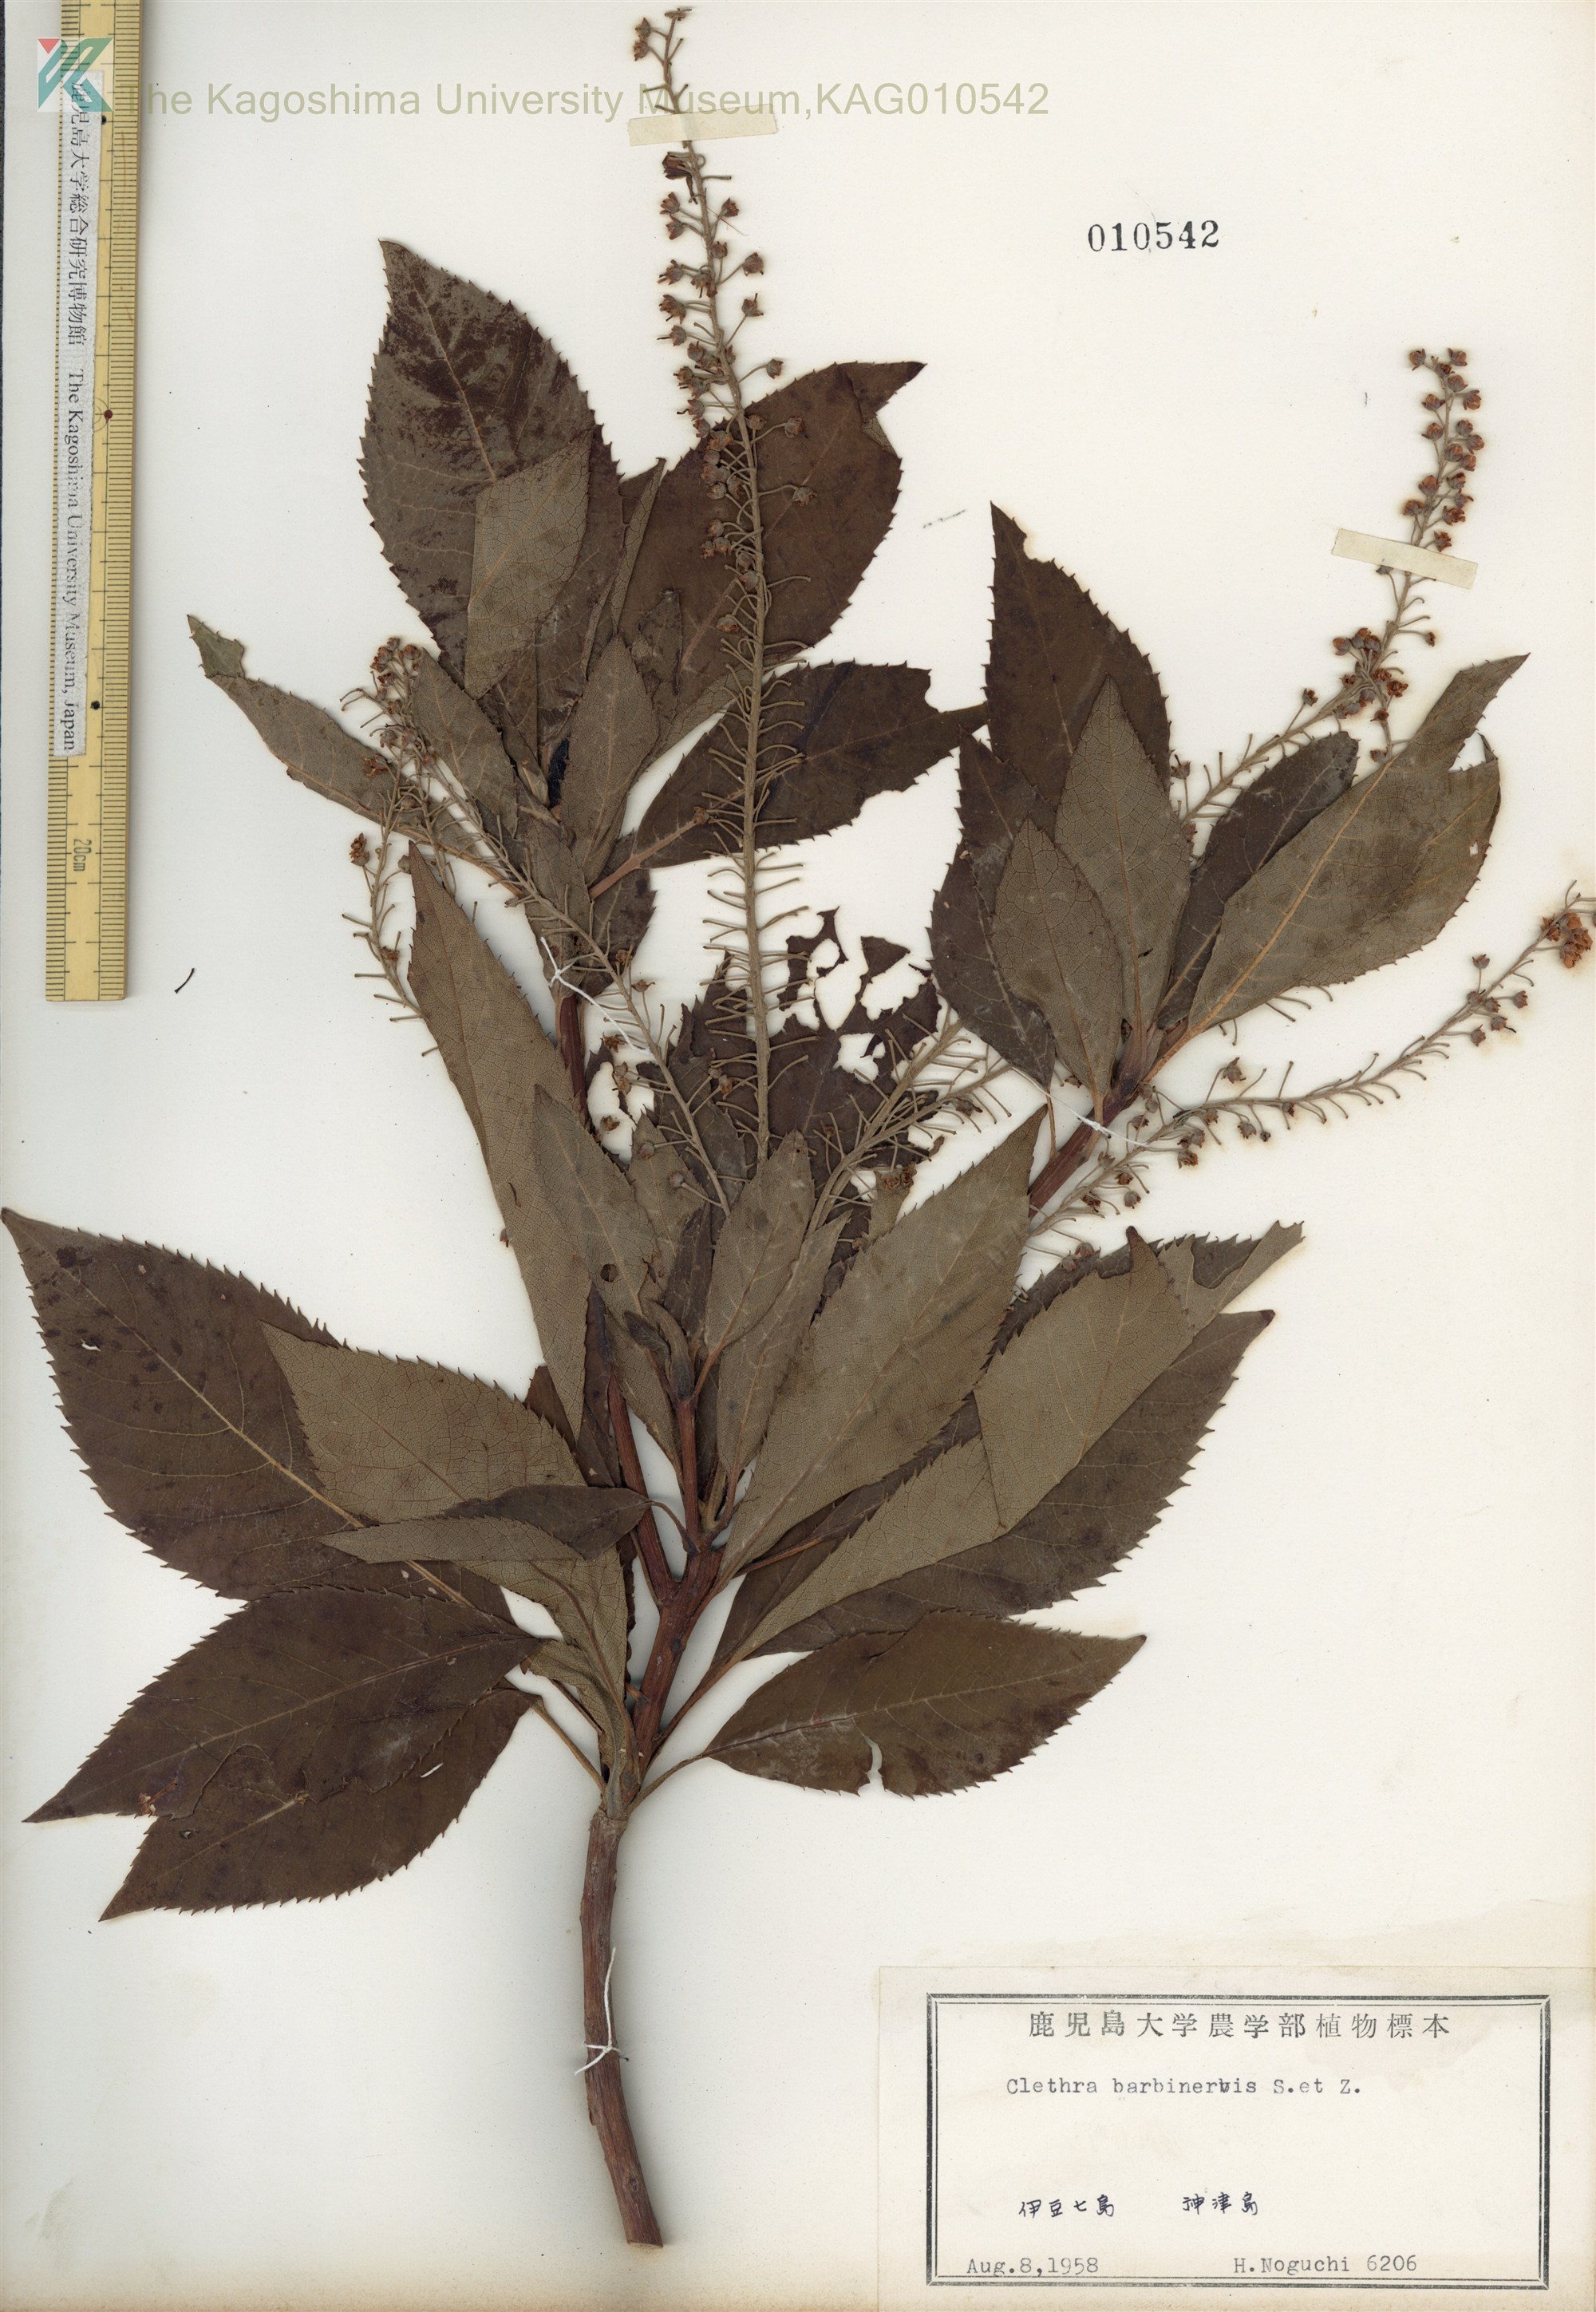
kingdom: Plantae
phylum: Tracheophyta
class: Magnoliopsida
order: Ericales
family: Clethraceae
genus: Clethra
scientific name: Clethra barbinervis
